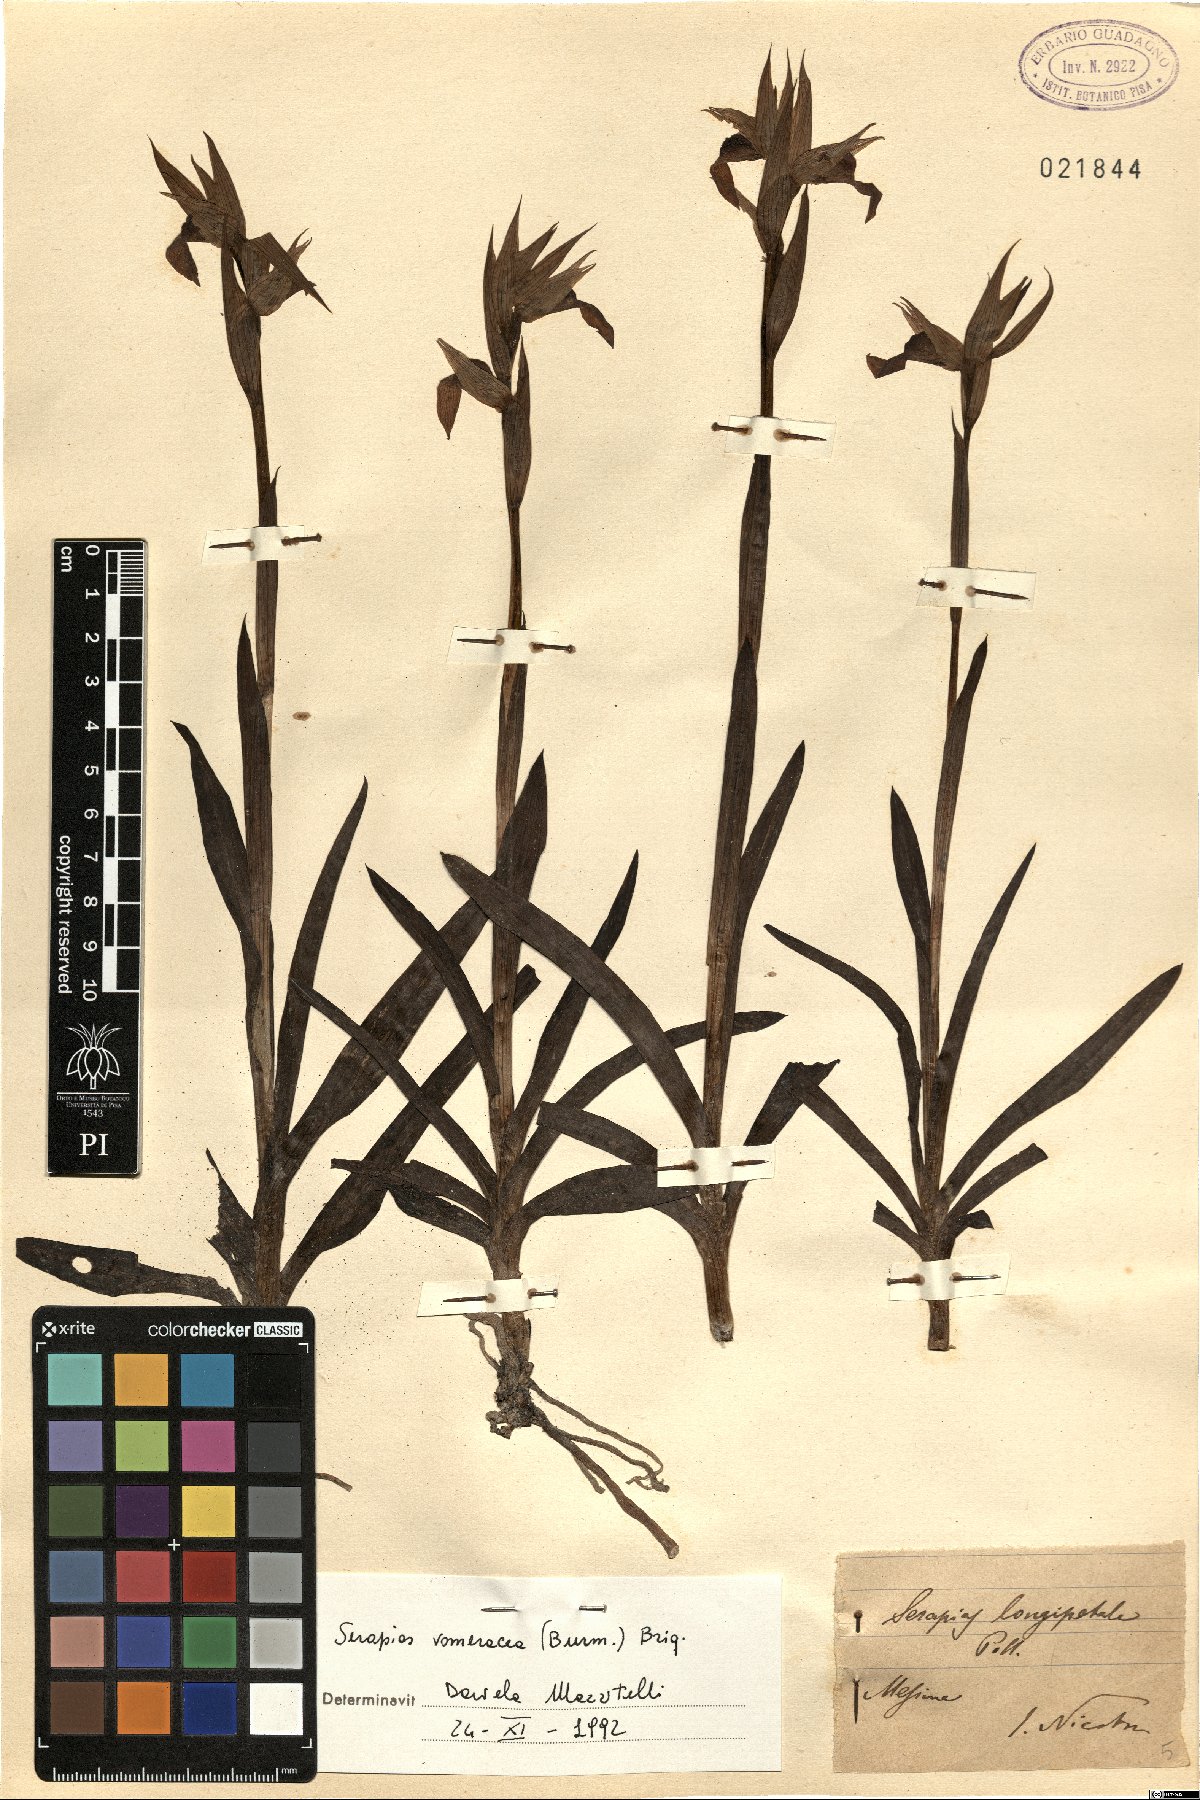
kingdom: Plantae
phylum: Tracheophyta
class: Liliopsida
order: Asparagales
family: Orchidaceae
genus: Serapias
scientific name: Serapias vomeracea
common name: Long-lipped tongue-orchid
